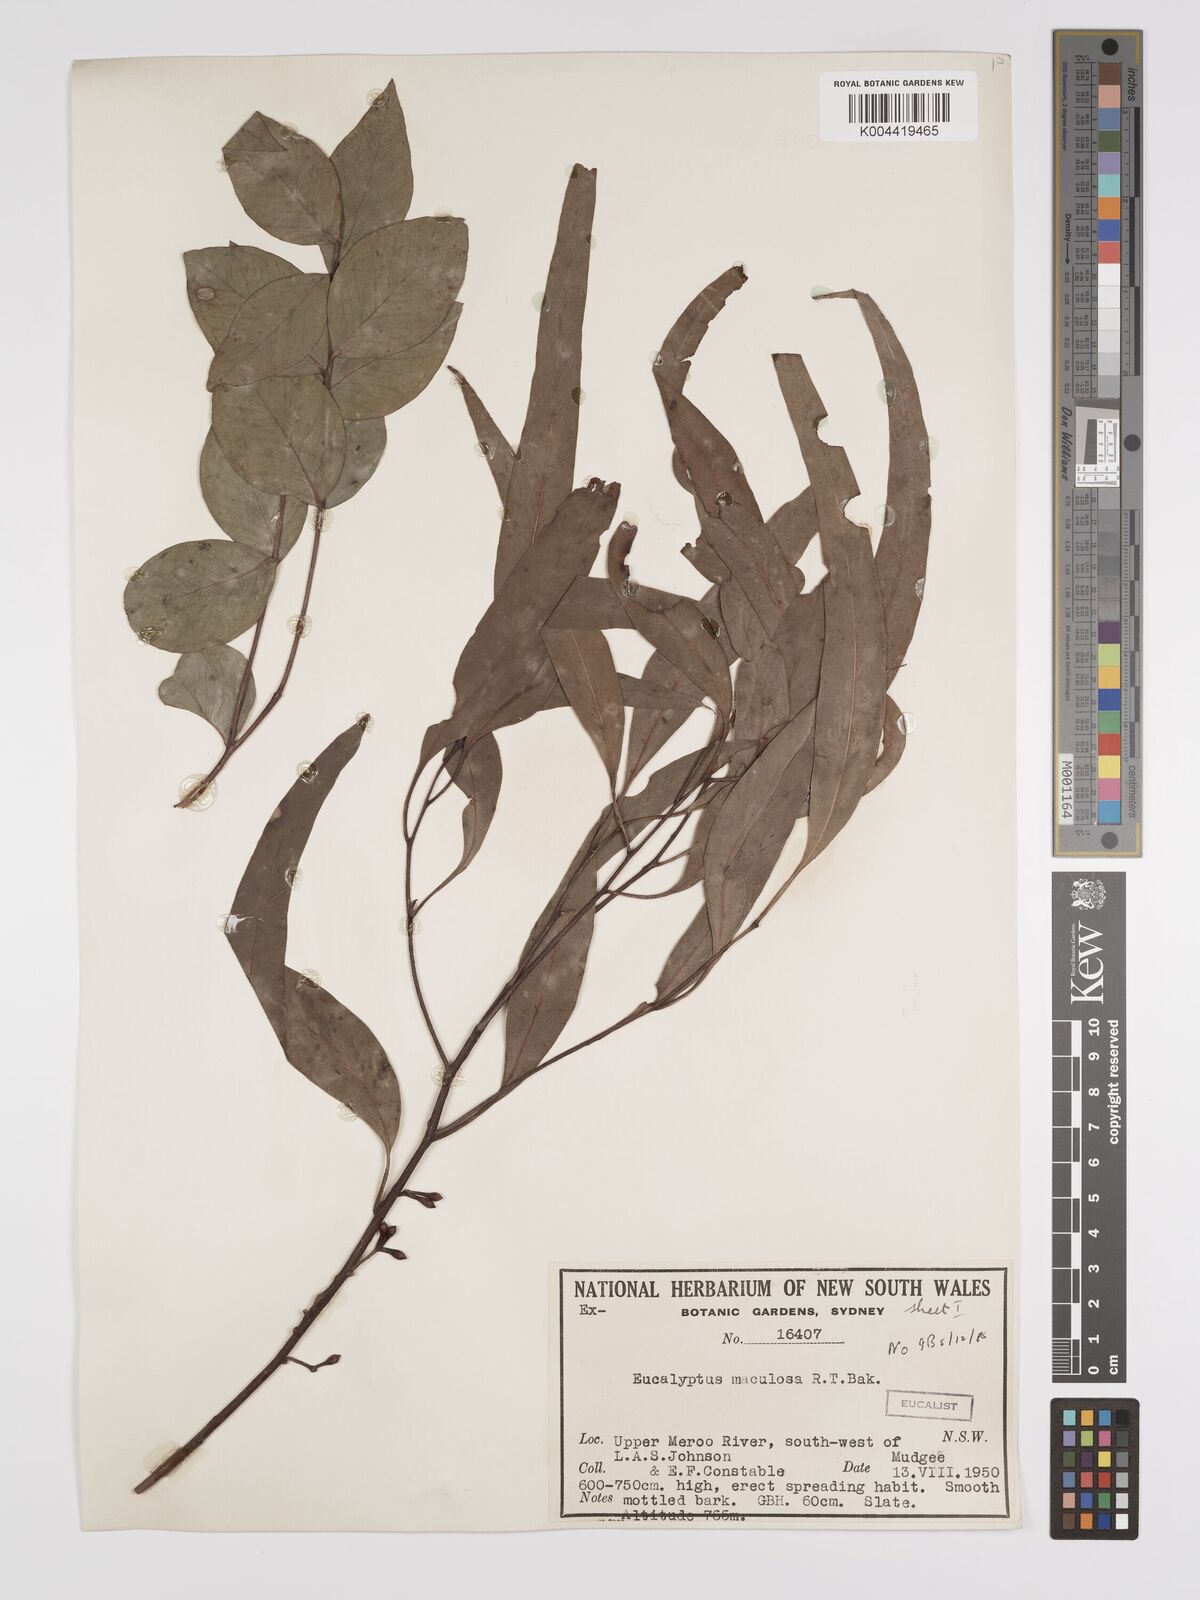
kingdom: Plantae
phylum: Tracheophyta
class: Magnoliopsida
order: Myrtales
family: Myrtaceae
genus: Eucalyptus
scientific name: Eucalyptus mannifera
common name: Manna gum
